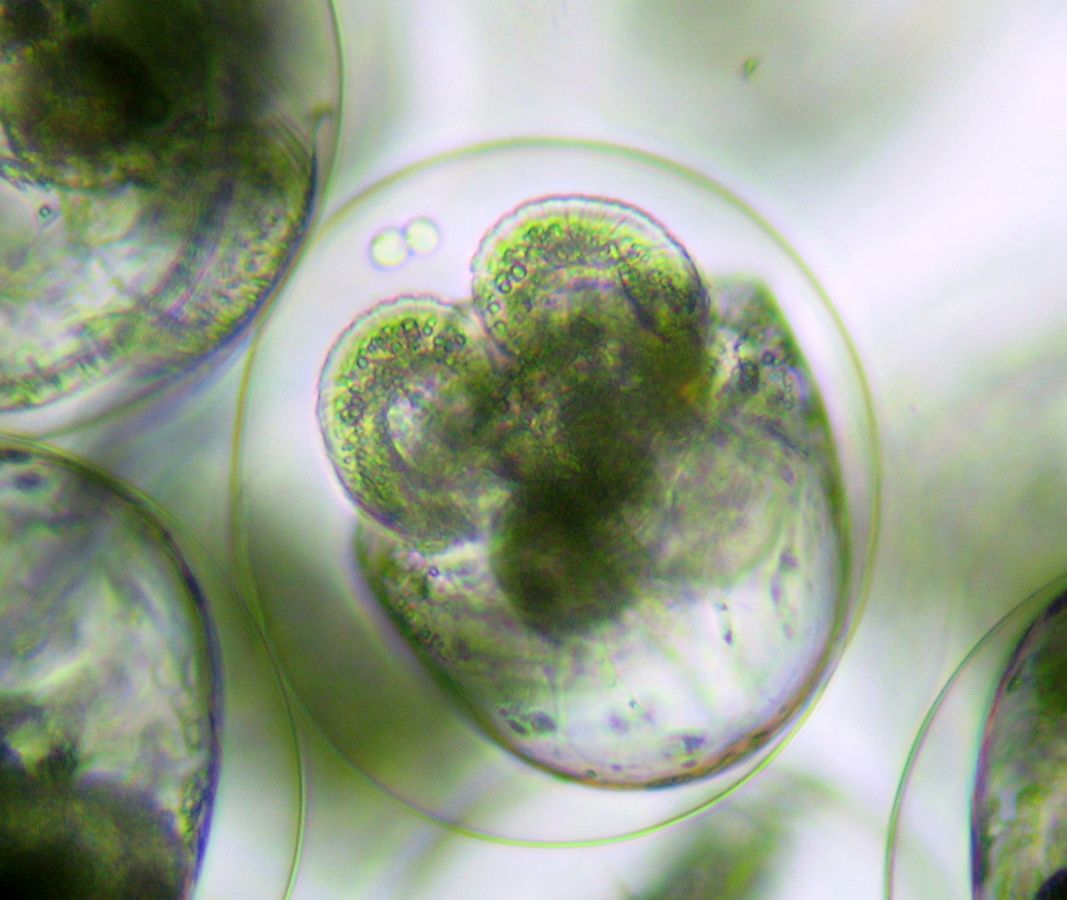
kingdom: Animalia
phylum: Mollusca
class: Gastropoda
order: Nudibranchia
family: Coryphellidae
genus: Coryphella
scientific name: Coryphella verrucosa
